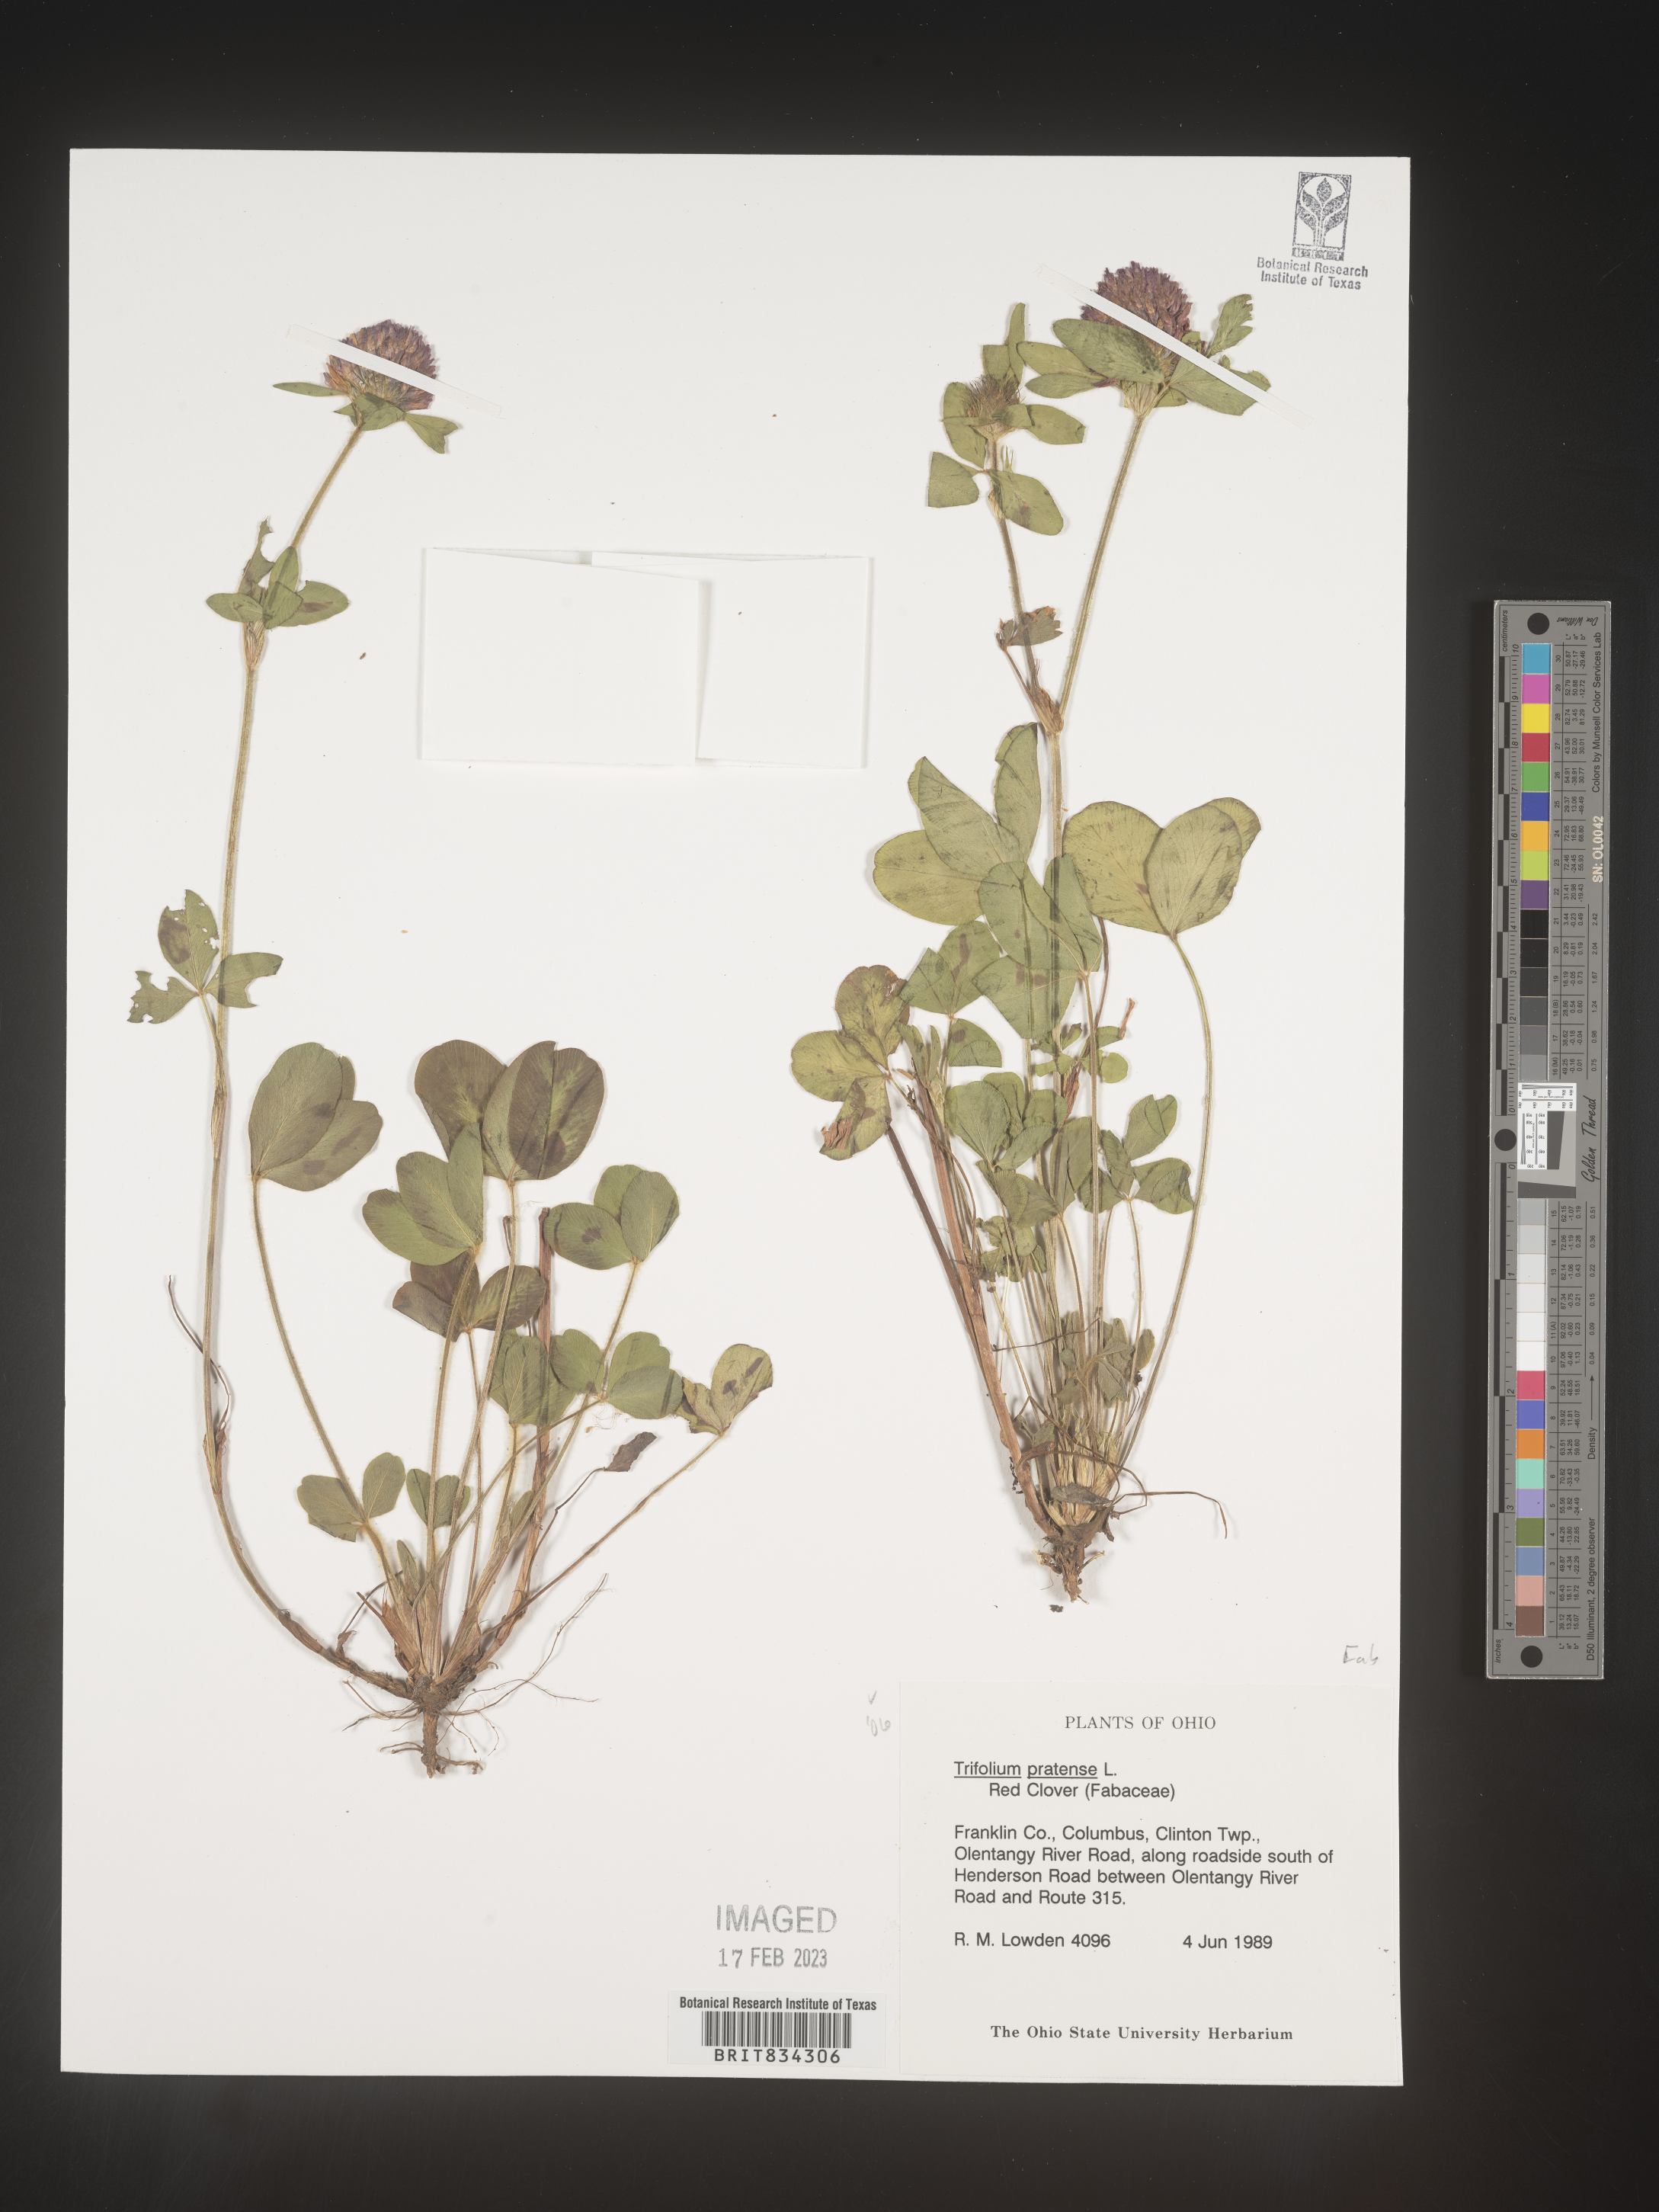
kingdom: Plantae
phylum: Tracheophyta
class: Magnoliopsida
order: Fabales
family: Fabaceae
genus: Trifolium
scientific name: Trifolium pratense
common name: Red clover
